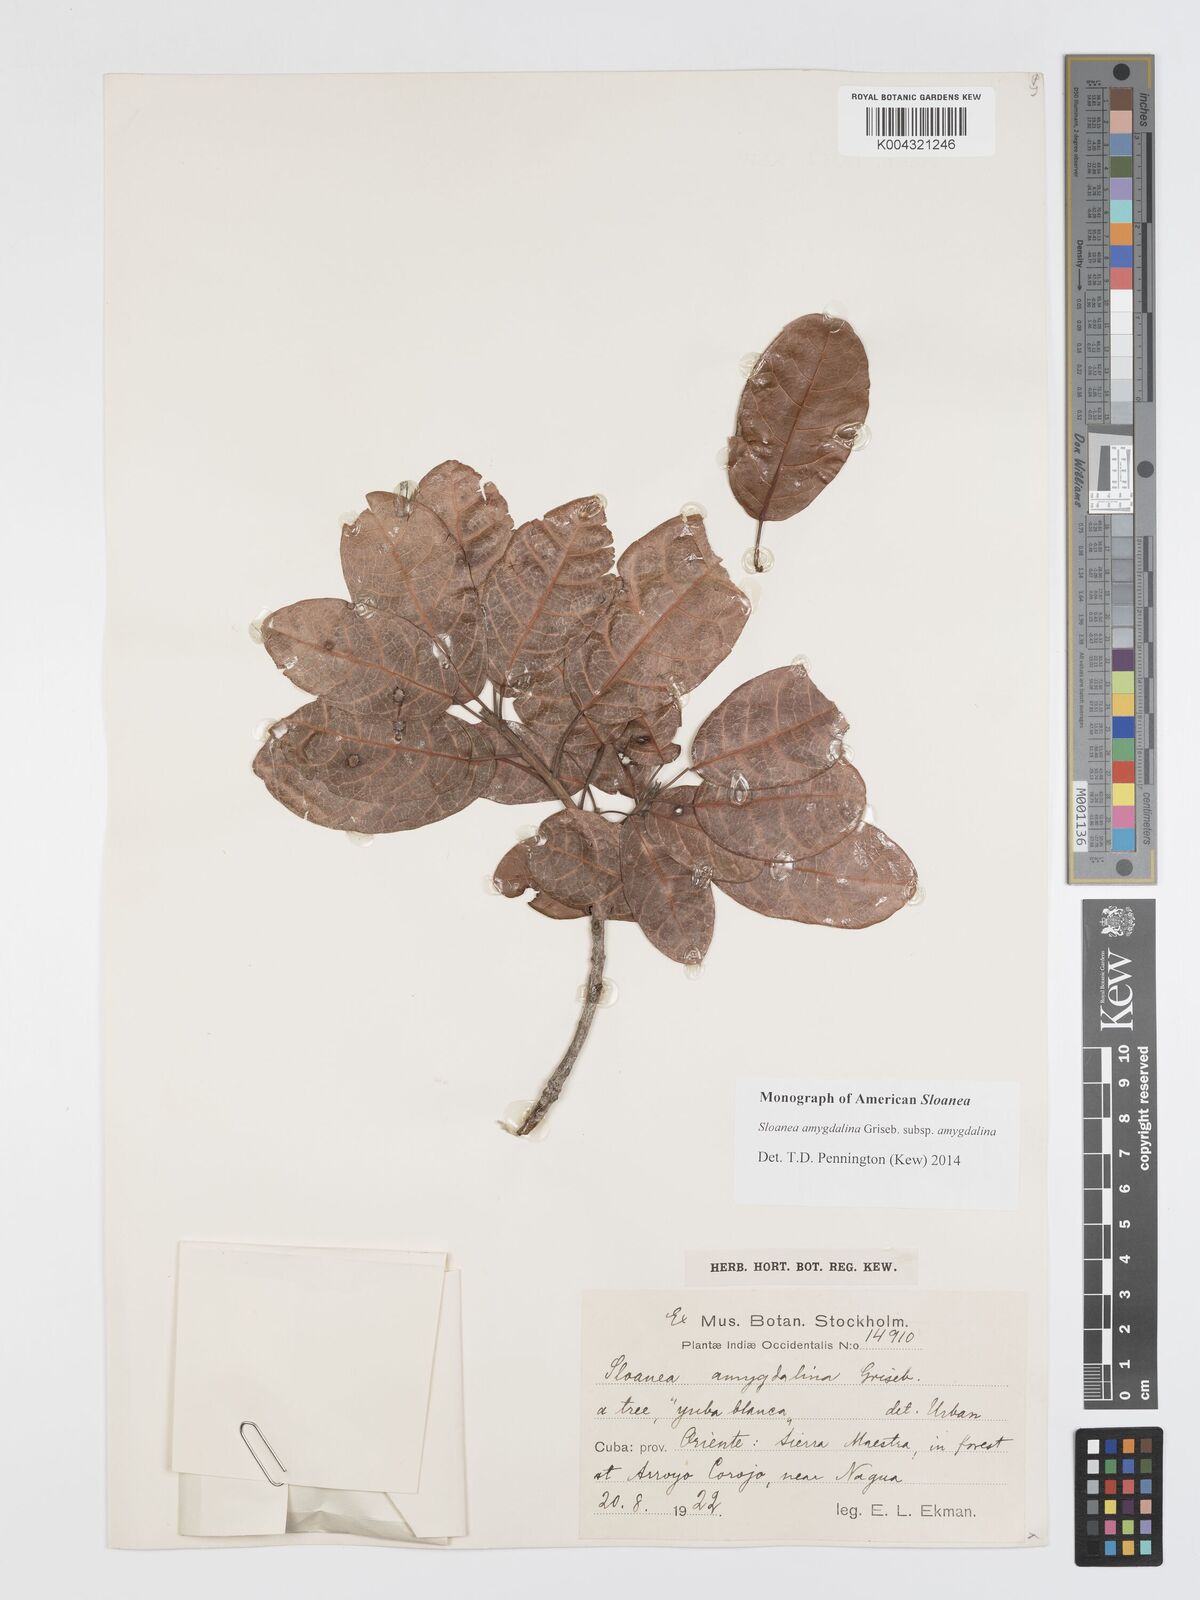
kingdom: Plantae
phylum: Tracheophyta
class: Magnoliopsida
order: Oxalidales
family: Elaeocarpaceae
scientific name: Elaeocarpaceae
